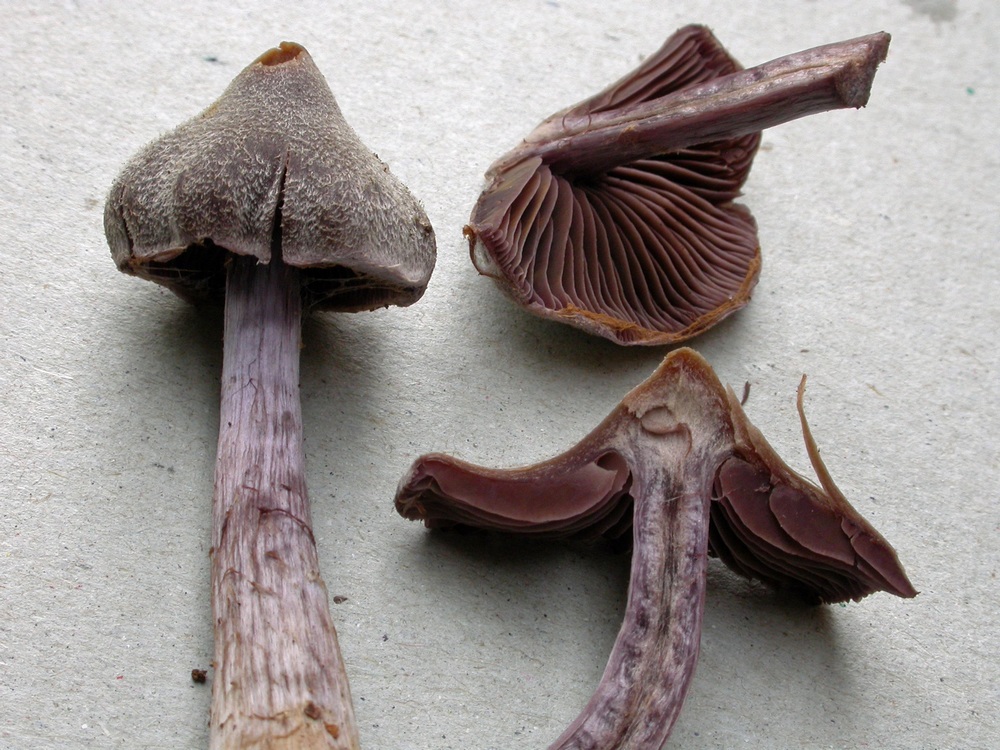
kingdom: Fungi
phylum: Basidiomycota
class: Agaricomycetes
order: Agaricales
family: Cortinariaceae
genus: Cortinarius
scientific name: Cortinarius
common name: pelargonie-slørhat
